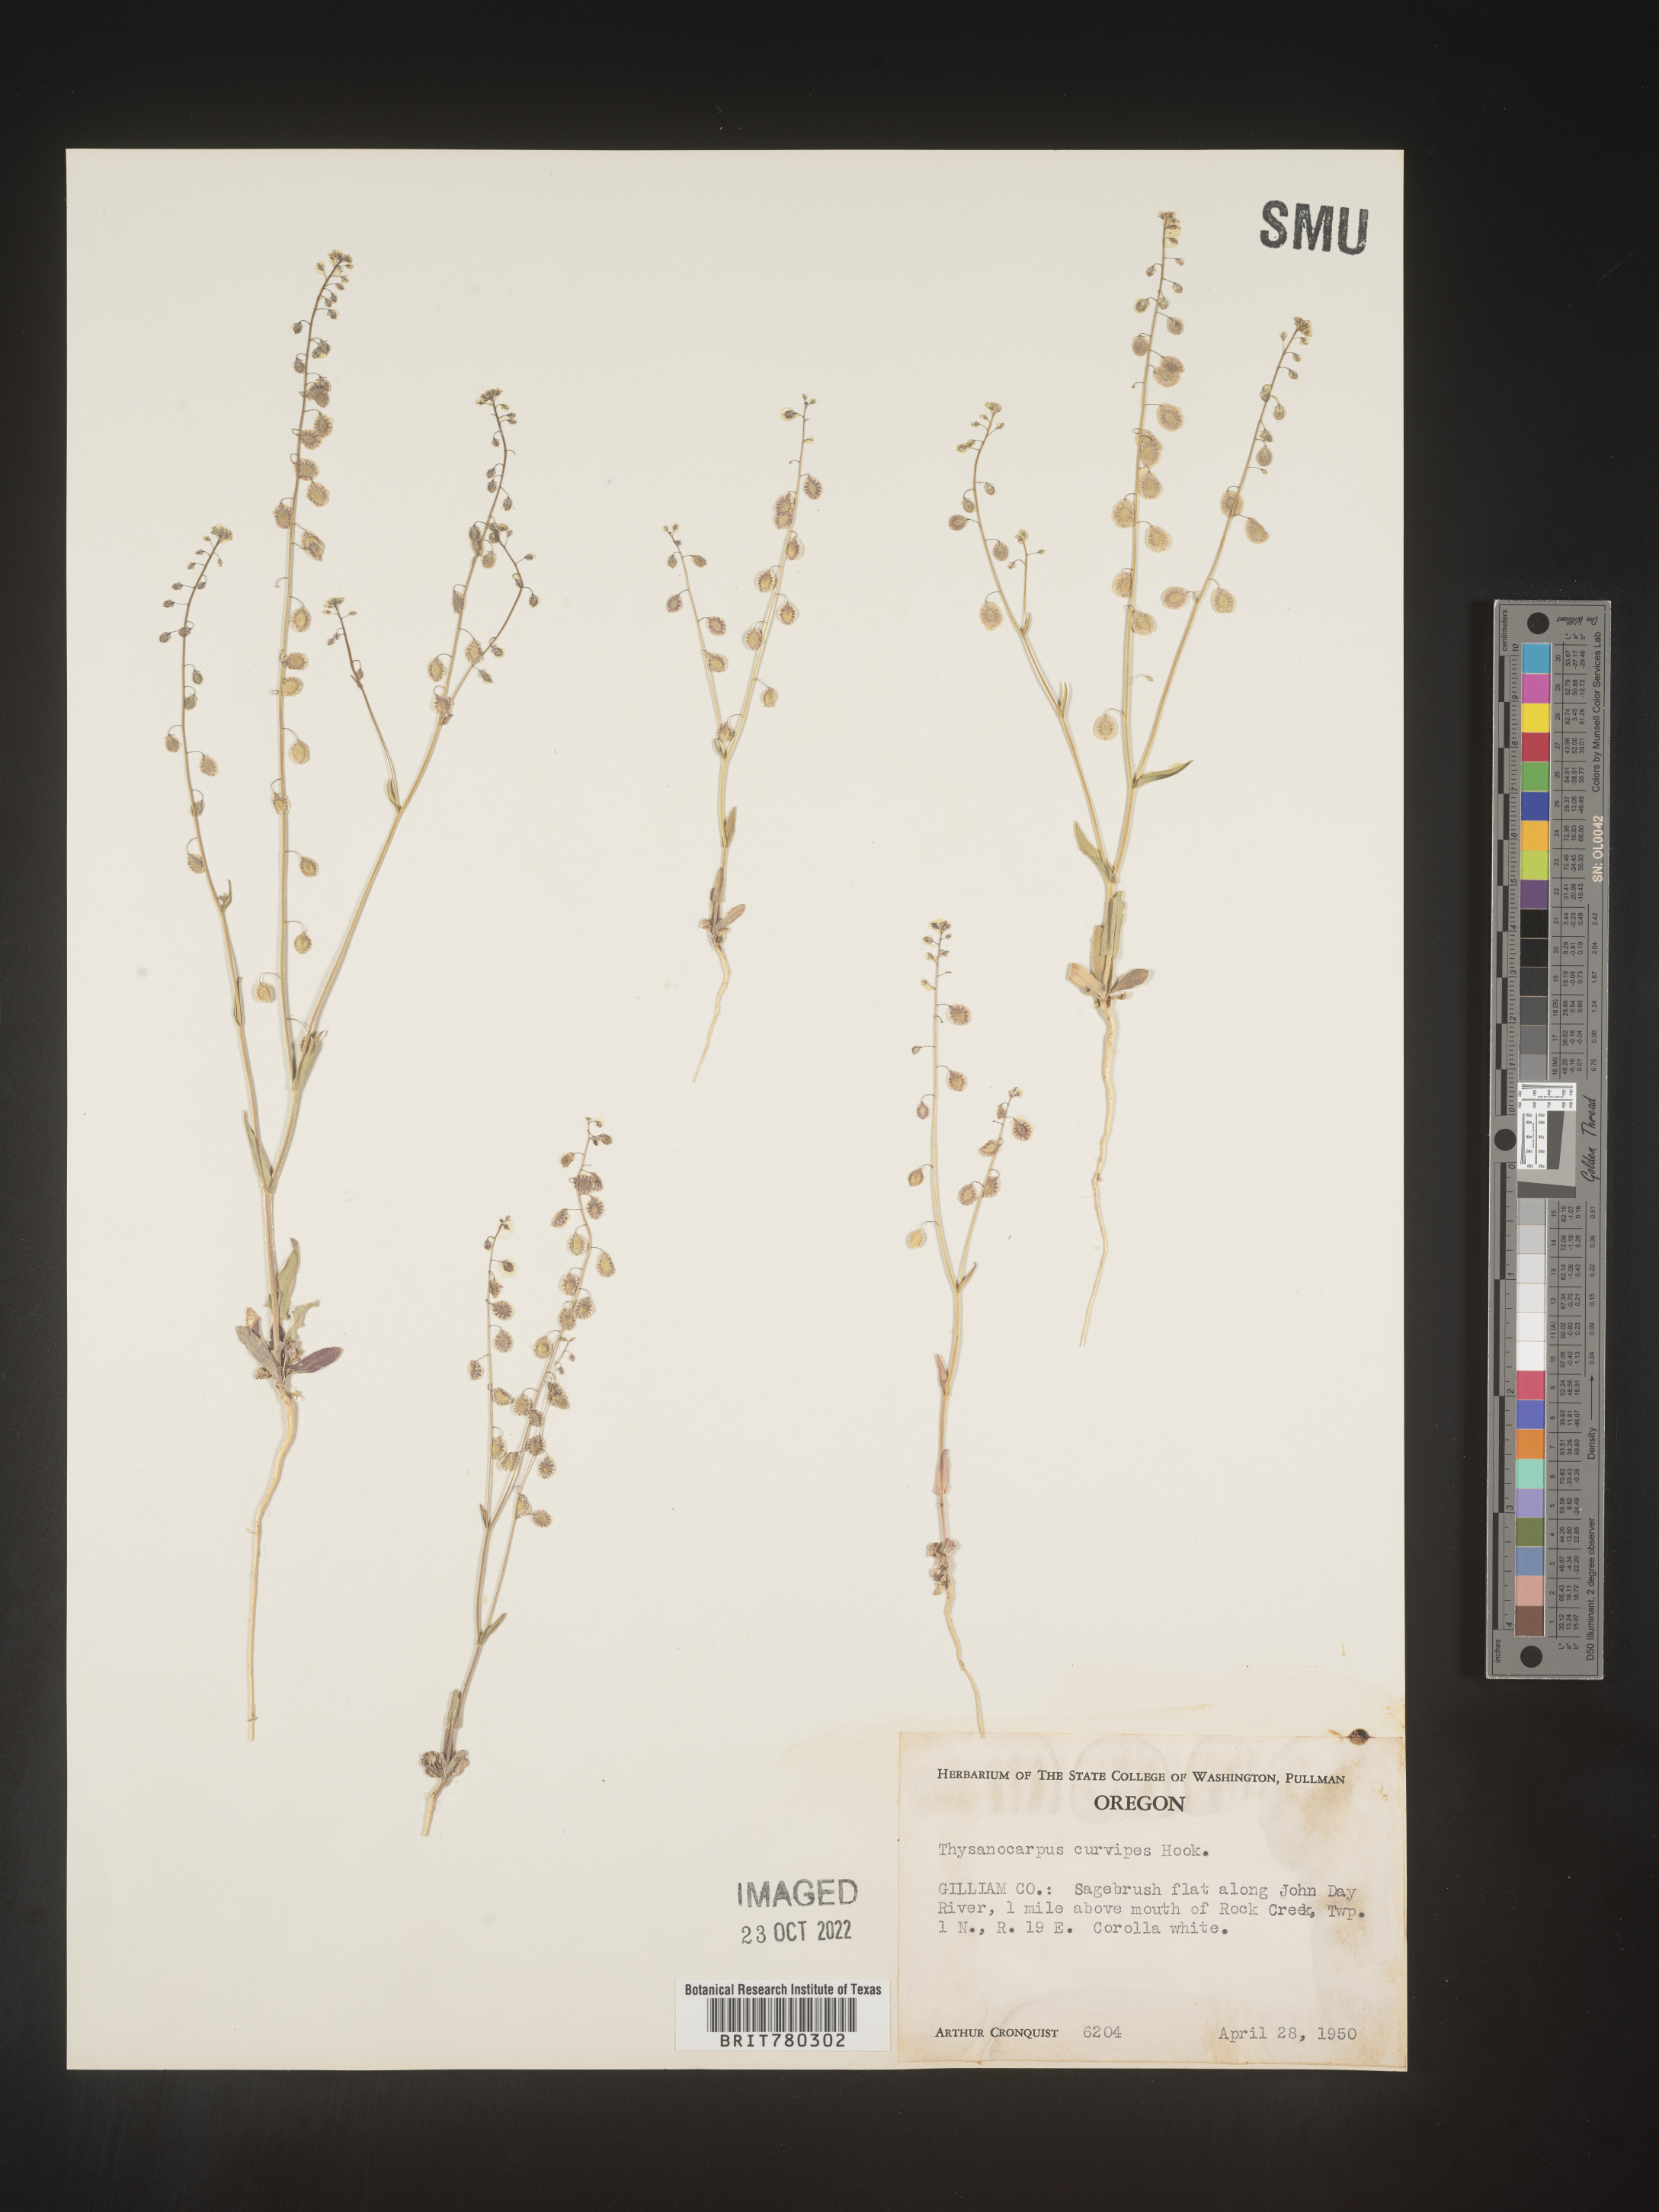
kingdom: Plantae
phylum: Tracheophyta
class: Magnoliopsida
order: Brassicales
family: Brassicaceae
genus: Thysanocarpus
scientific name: Thysanocarpus
